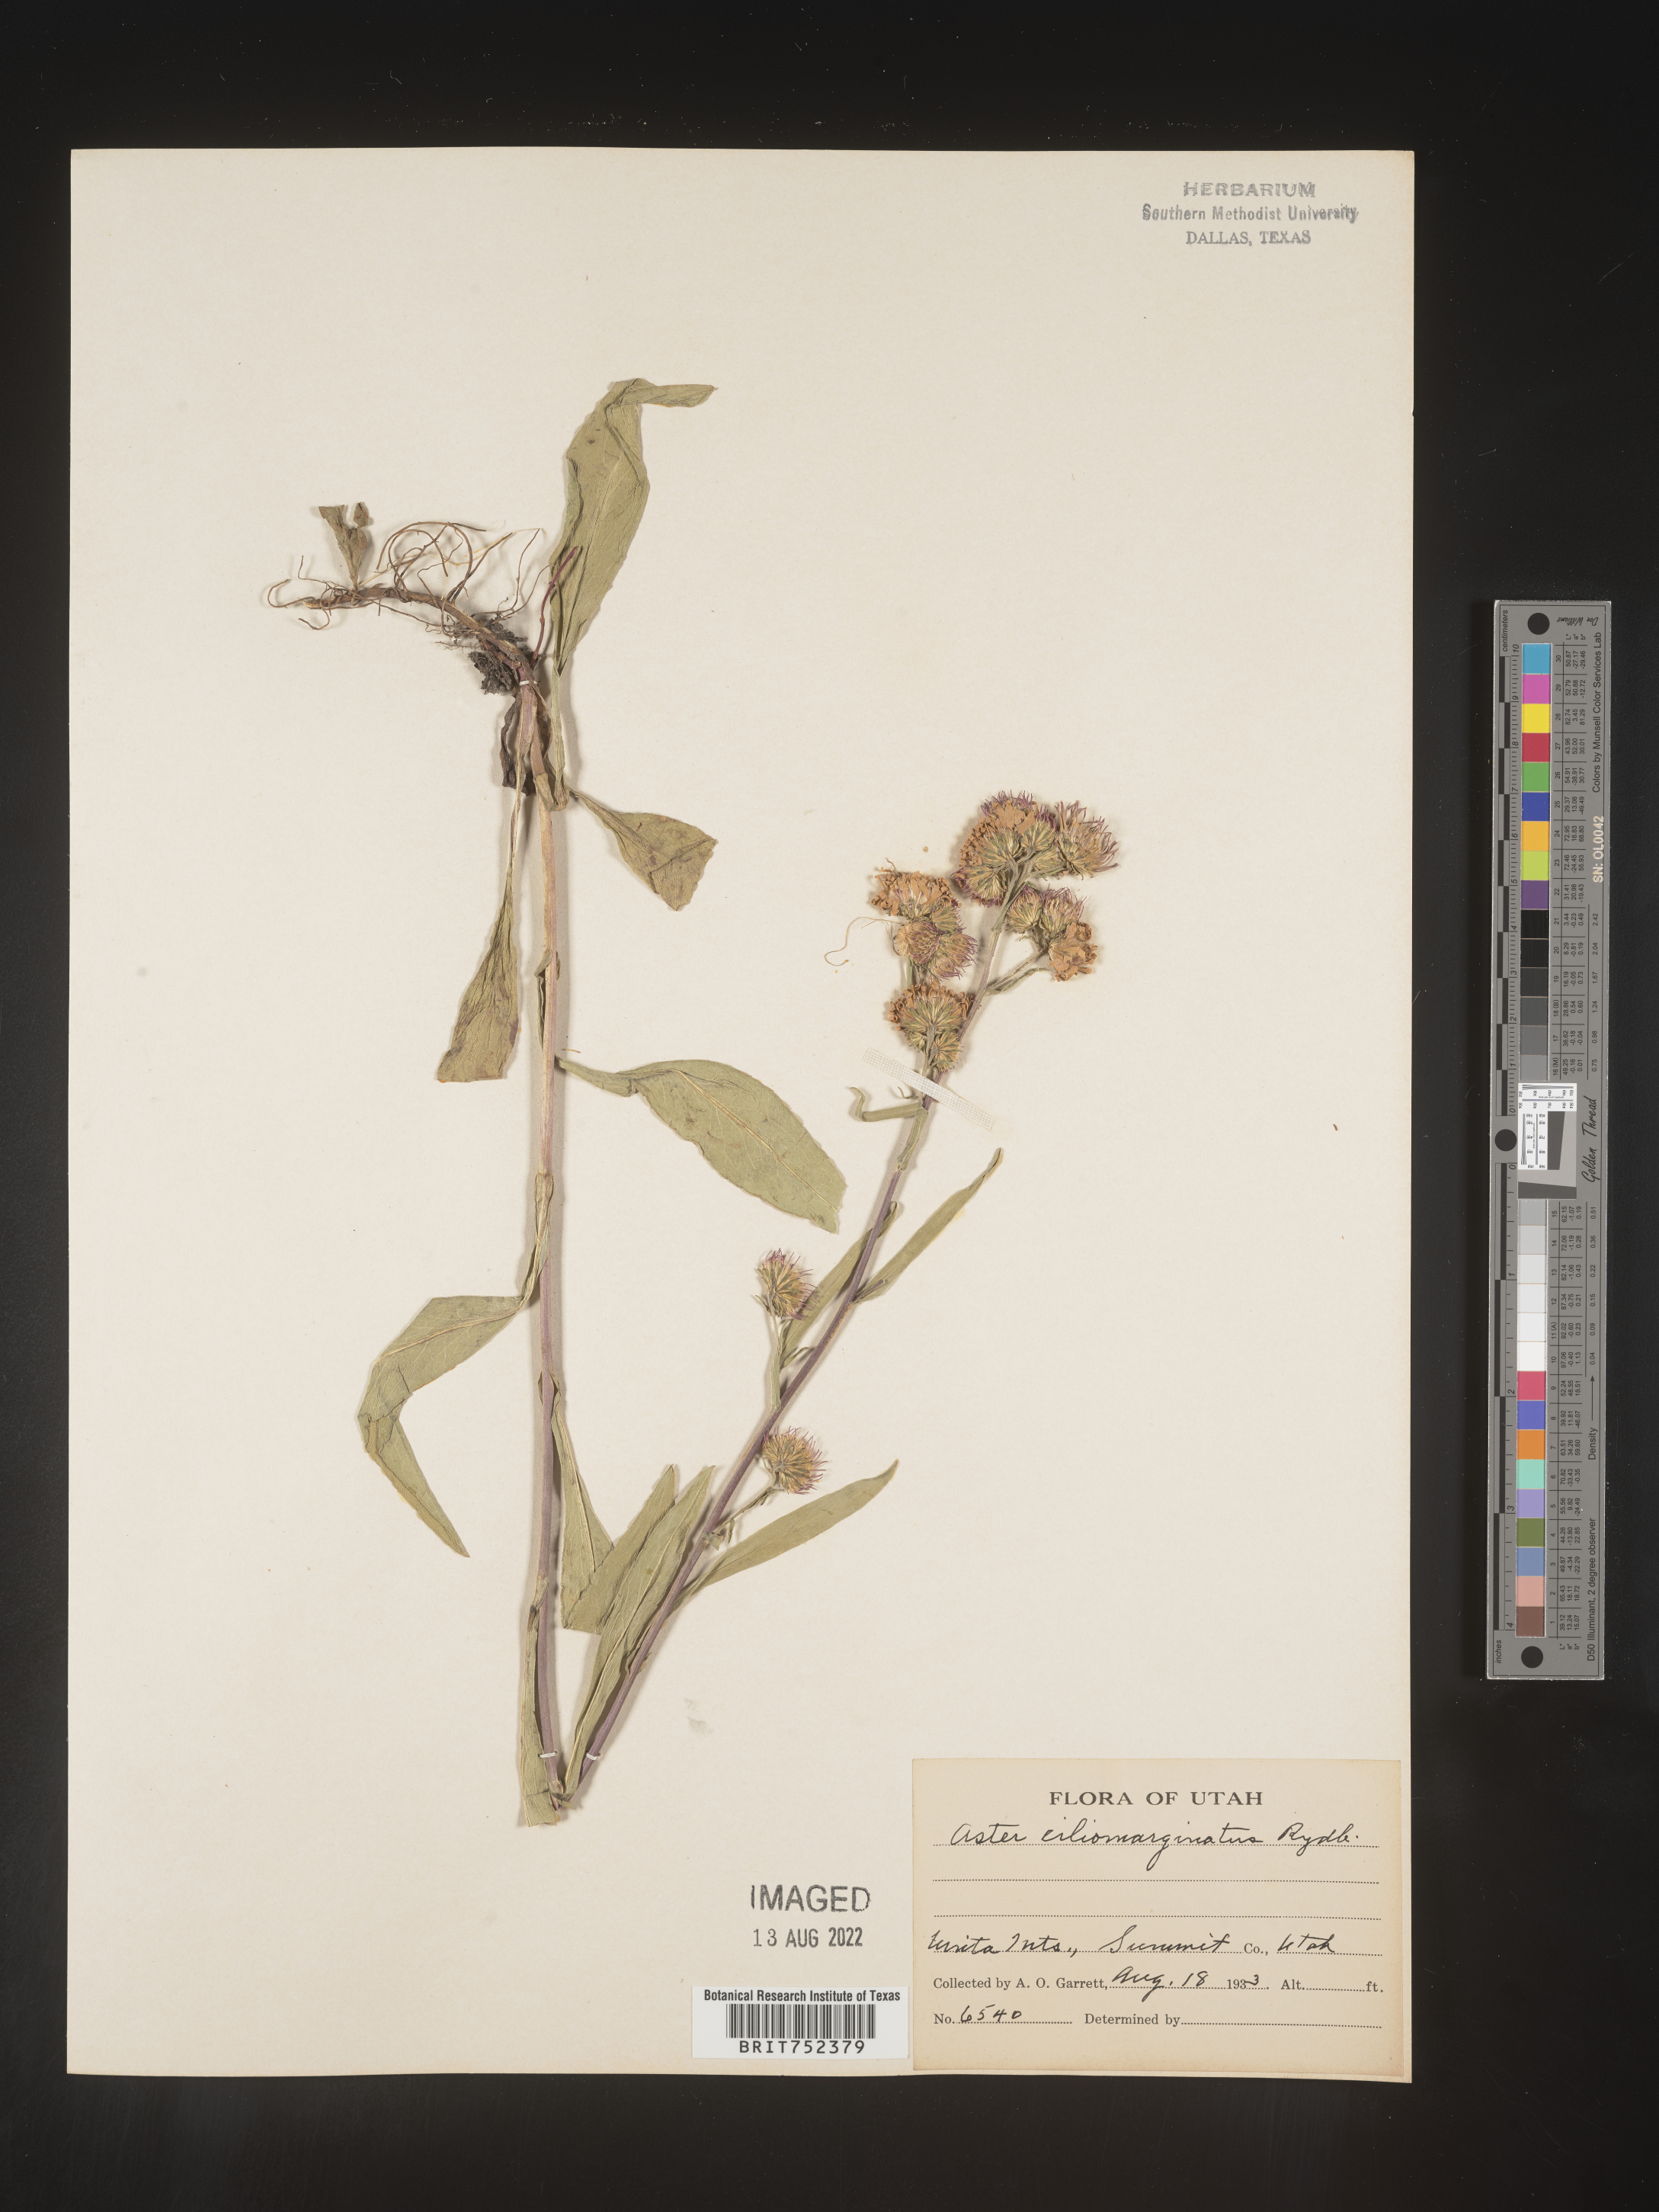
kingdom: Plantae
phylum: Tracheophyta
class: Magnoliopsida
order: Asterales
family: Asteraceae
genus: Symphyotrichum
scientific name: Symphyotrichum foliaceum
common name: Leafy aster
